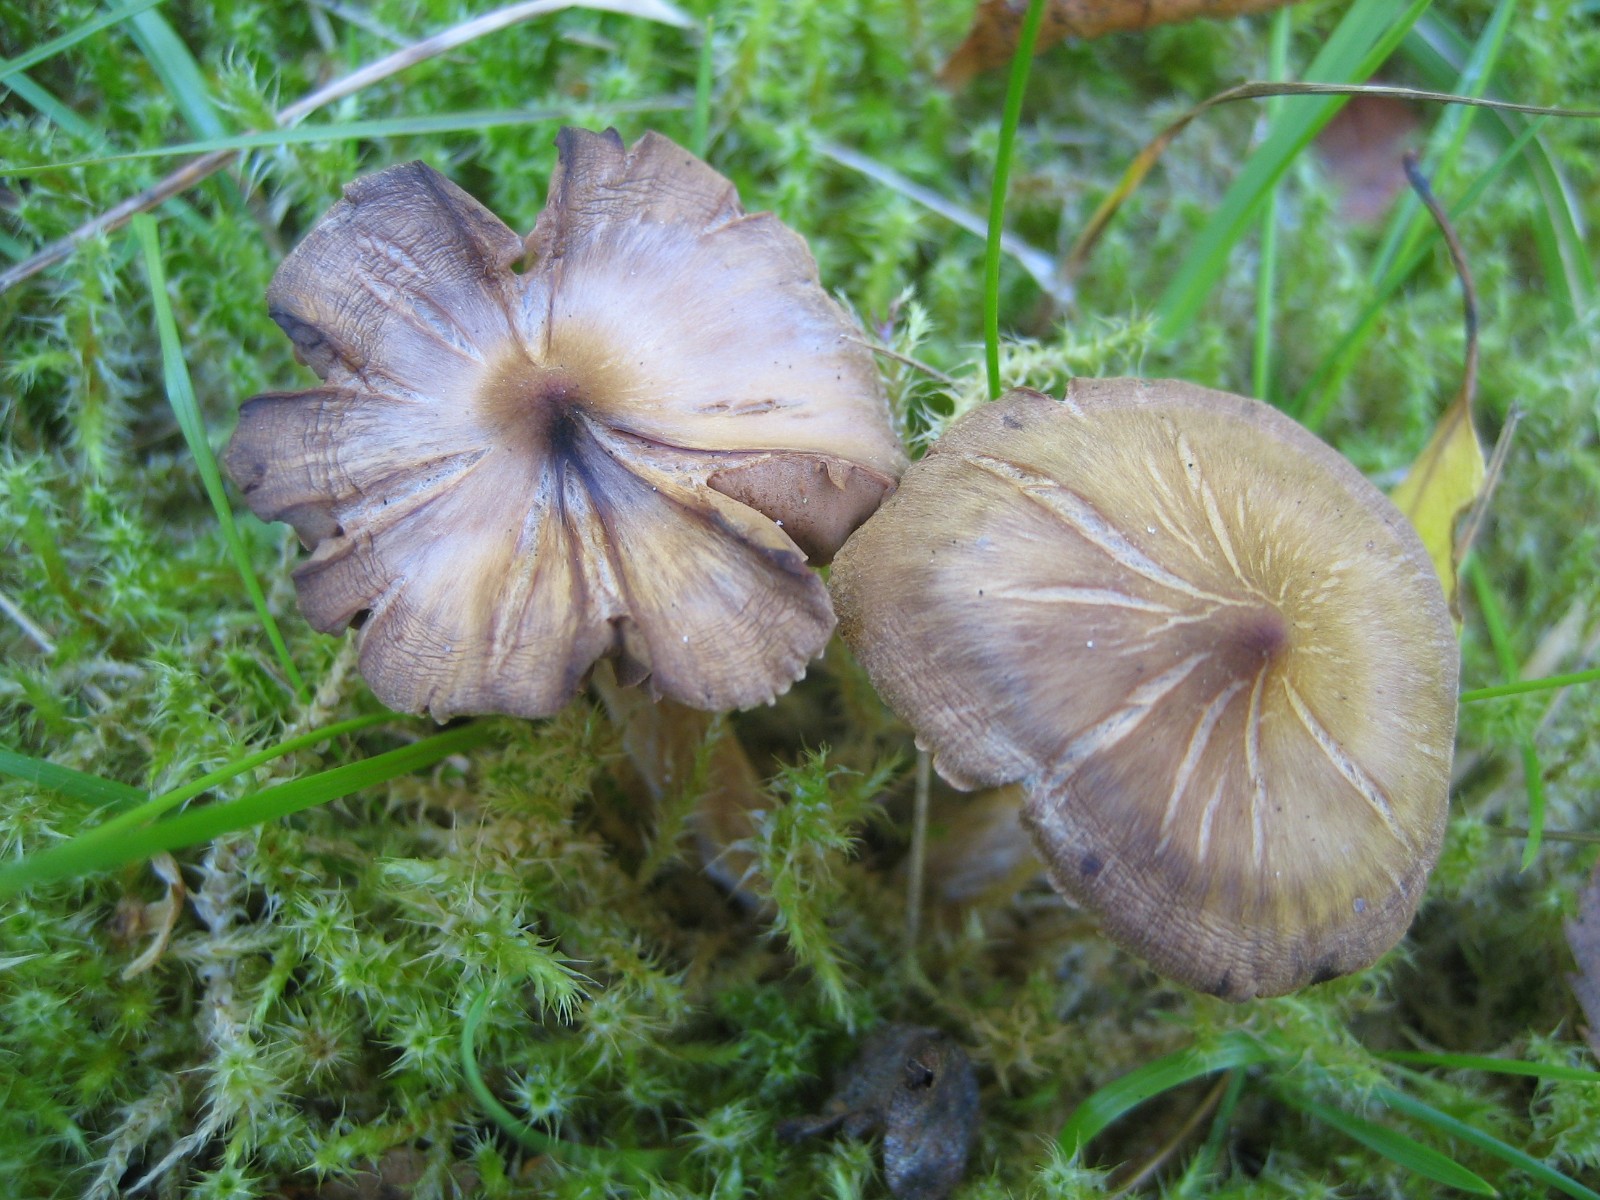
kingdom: Fungi
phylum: Basidiomycota
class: Agaricomycetes
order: Agaricales
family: Cortinariaceae
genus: Cortinarius
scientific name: Cortinarius
